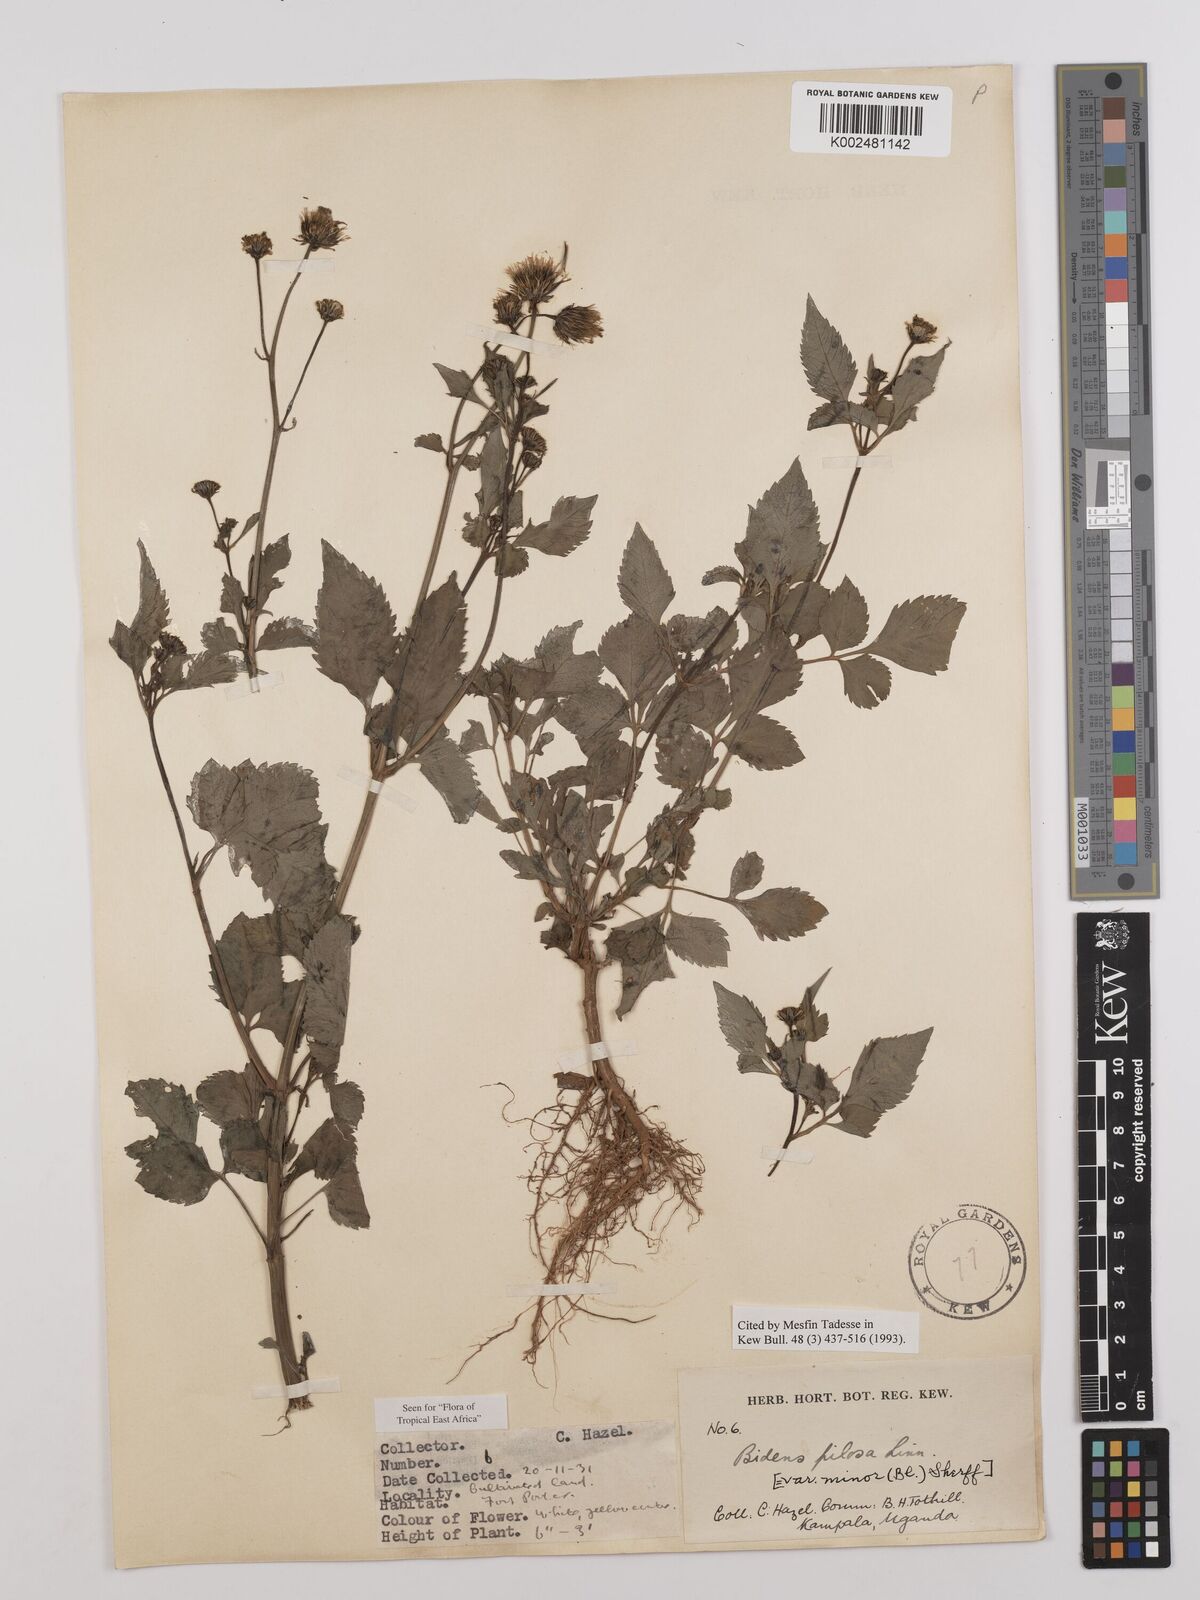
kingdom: Plantae
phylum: Tracheophyta
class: Magnoliopsida
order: Asterales
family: Asteraceae
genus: Bidens
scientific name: Bidens pilosa
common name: Black-jack
